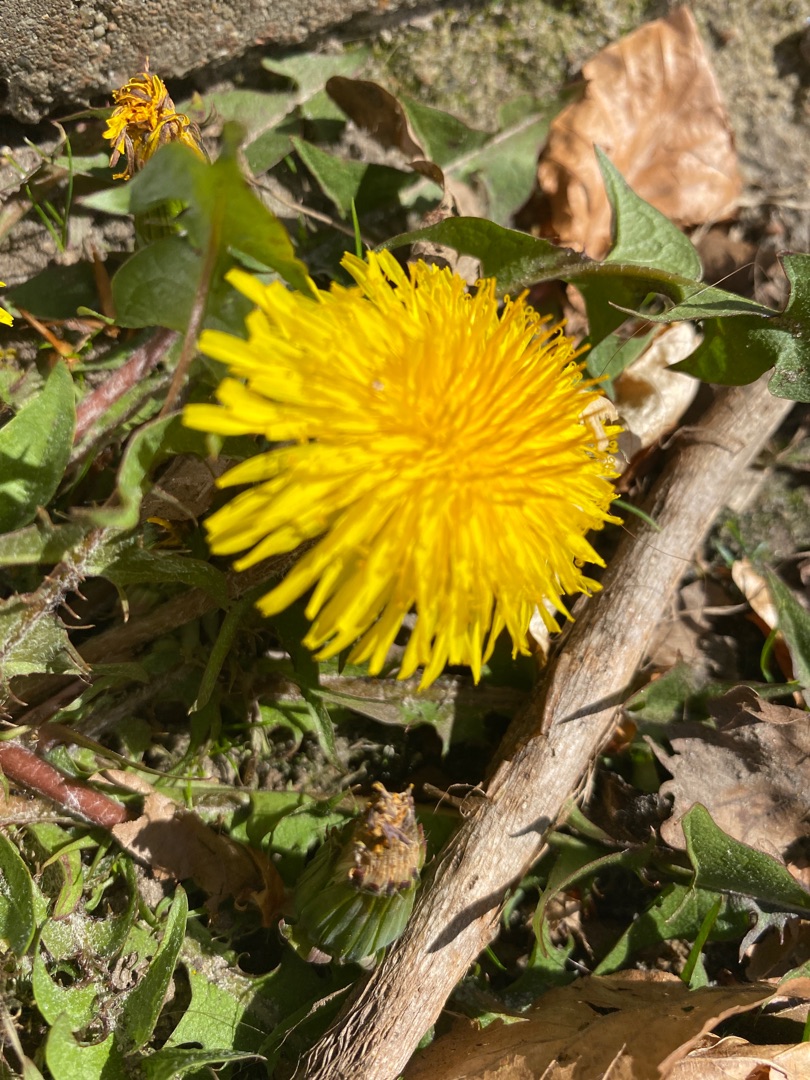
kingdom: Plantae
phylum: Tracheophyta
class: Magnoliopsida
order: Asterales
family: Asteraceae
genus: Taraxacum
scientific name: Taraxacum
